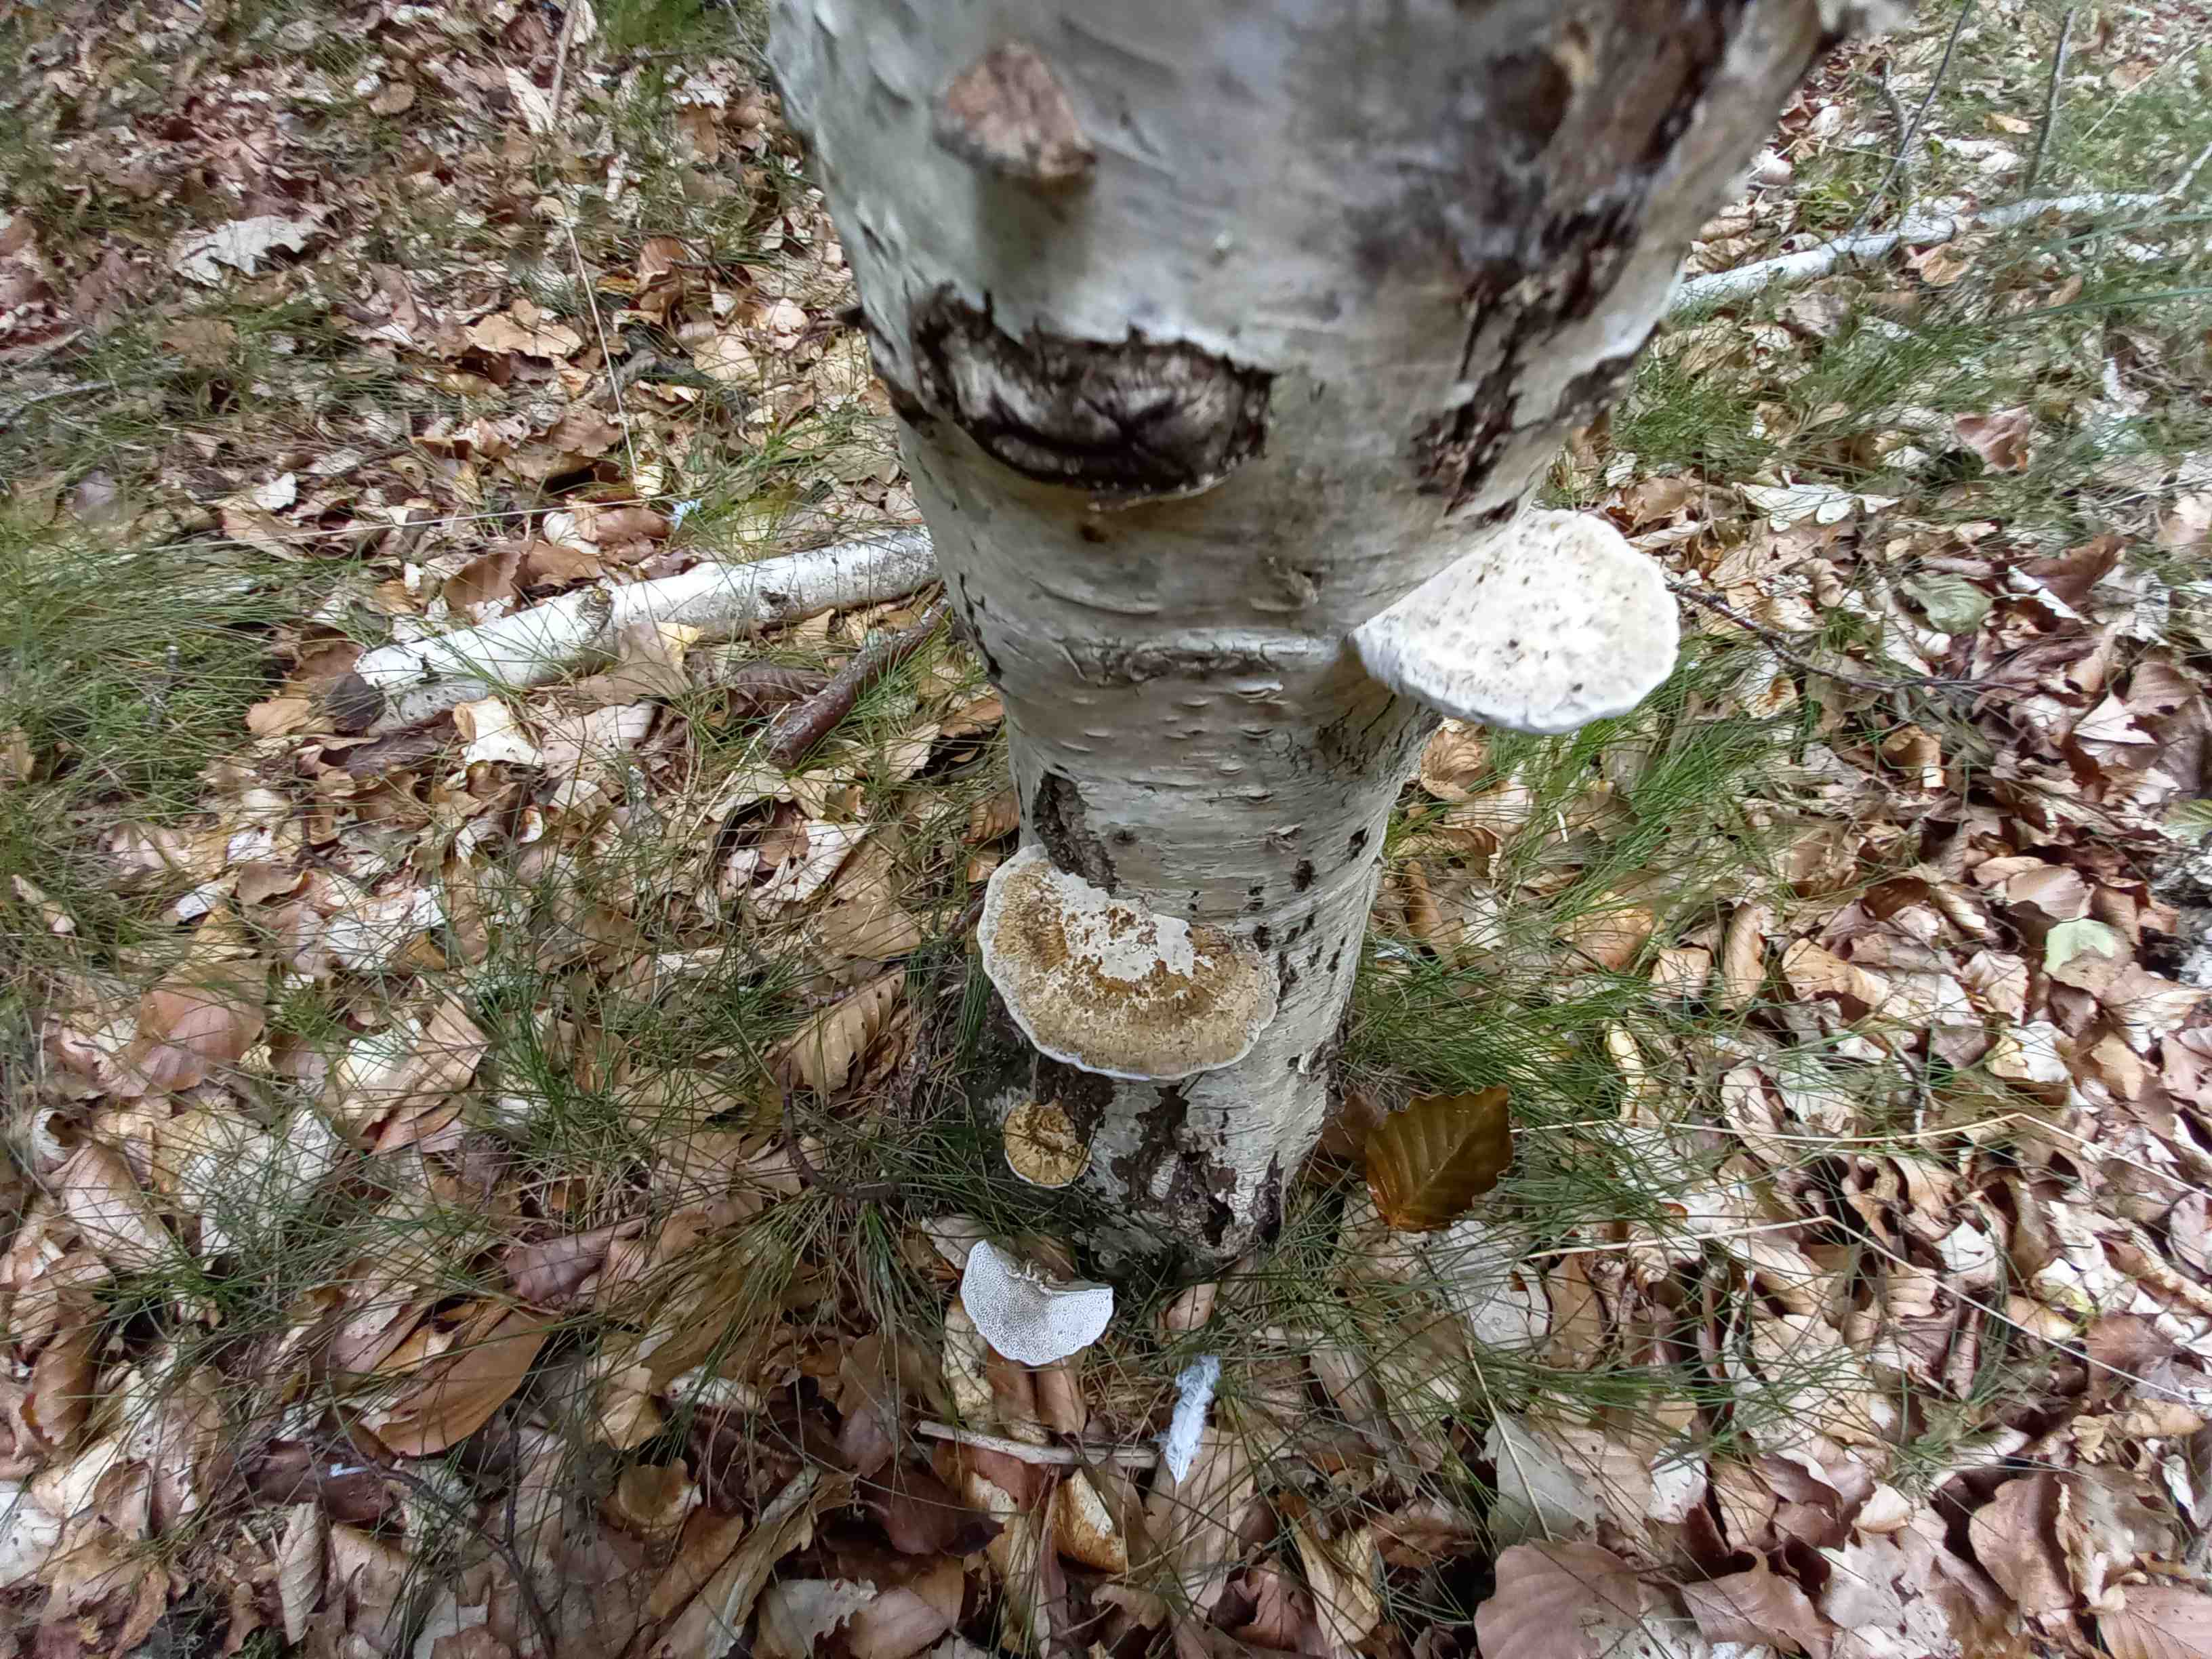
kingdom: Fungi
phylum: Basidiomycota
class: Agaricomycetes
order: Polyporales
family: Polyporaceae
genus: Daedaleopsis
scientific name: Daedaleopsis confragosa
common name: rødmende læderporesvamp
